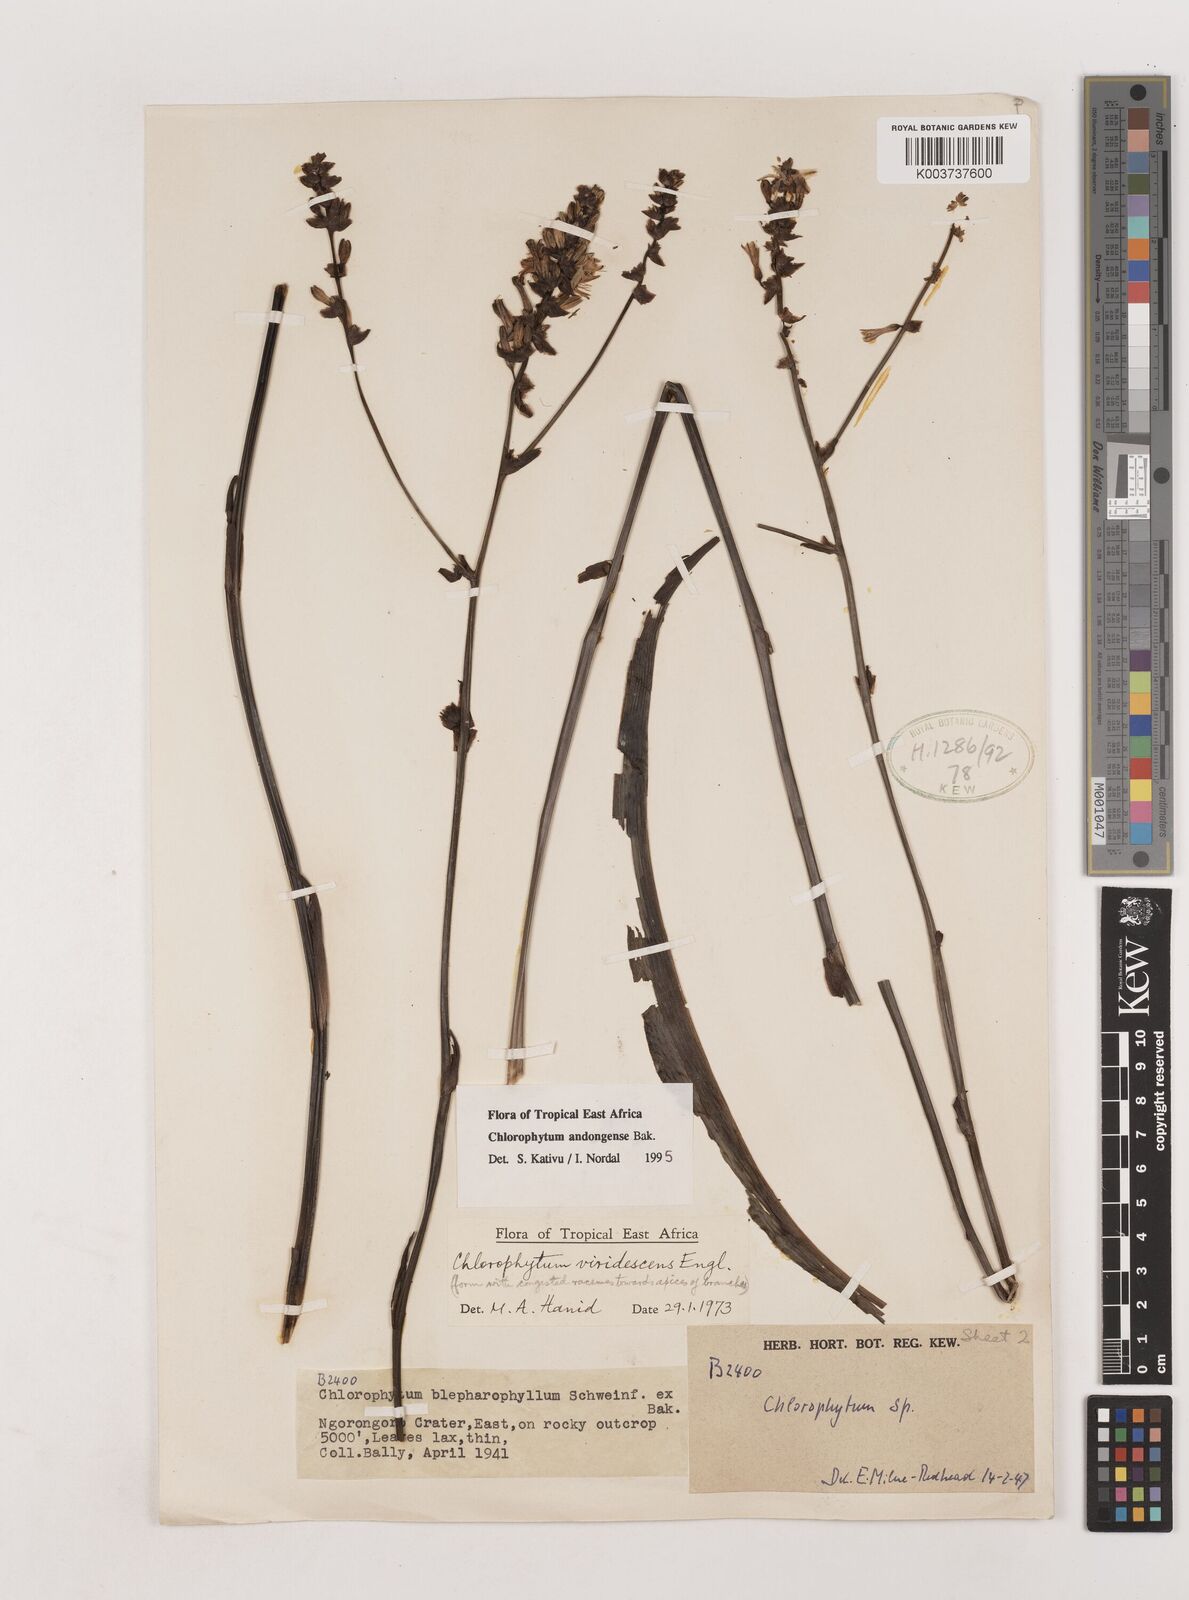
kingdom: Plantae
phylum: Tracheophyta
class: Liliopsida
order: Asparagales
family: Asparagaceae
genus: Chlorophytum
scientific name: Chlorophytum andongense
